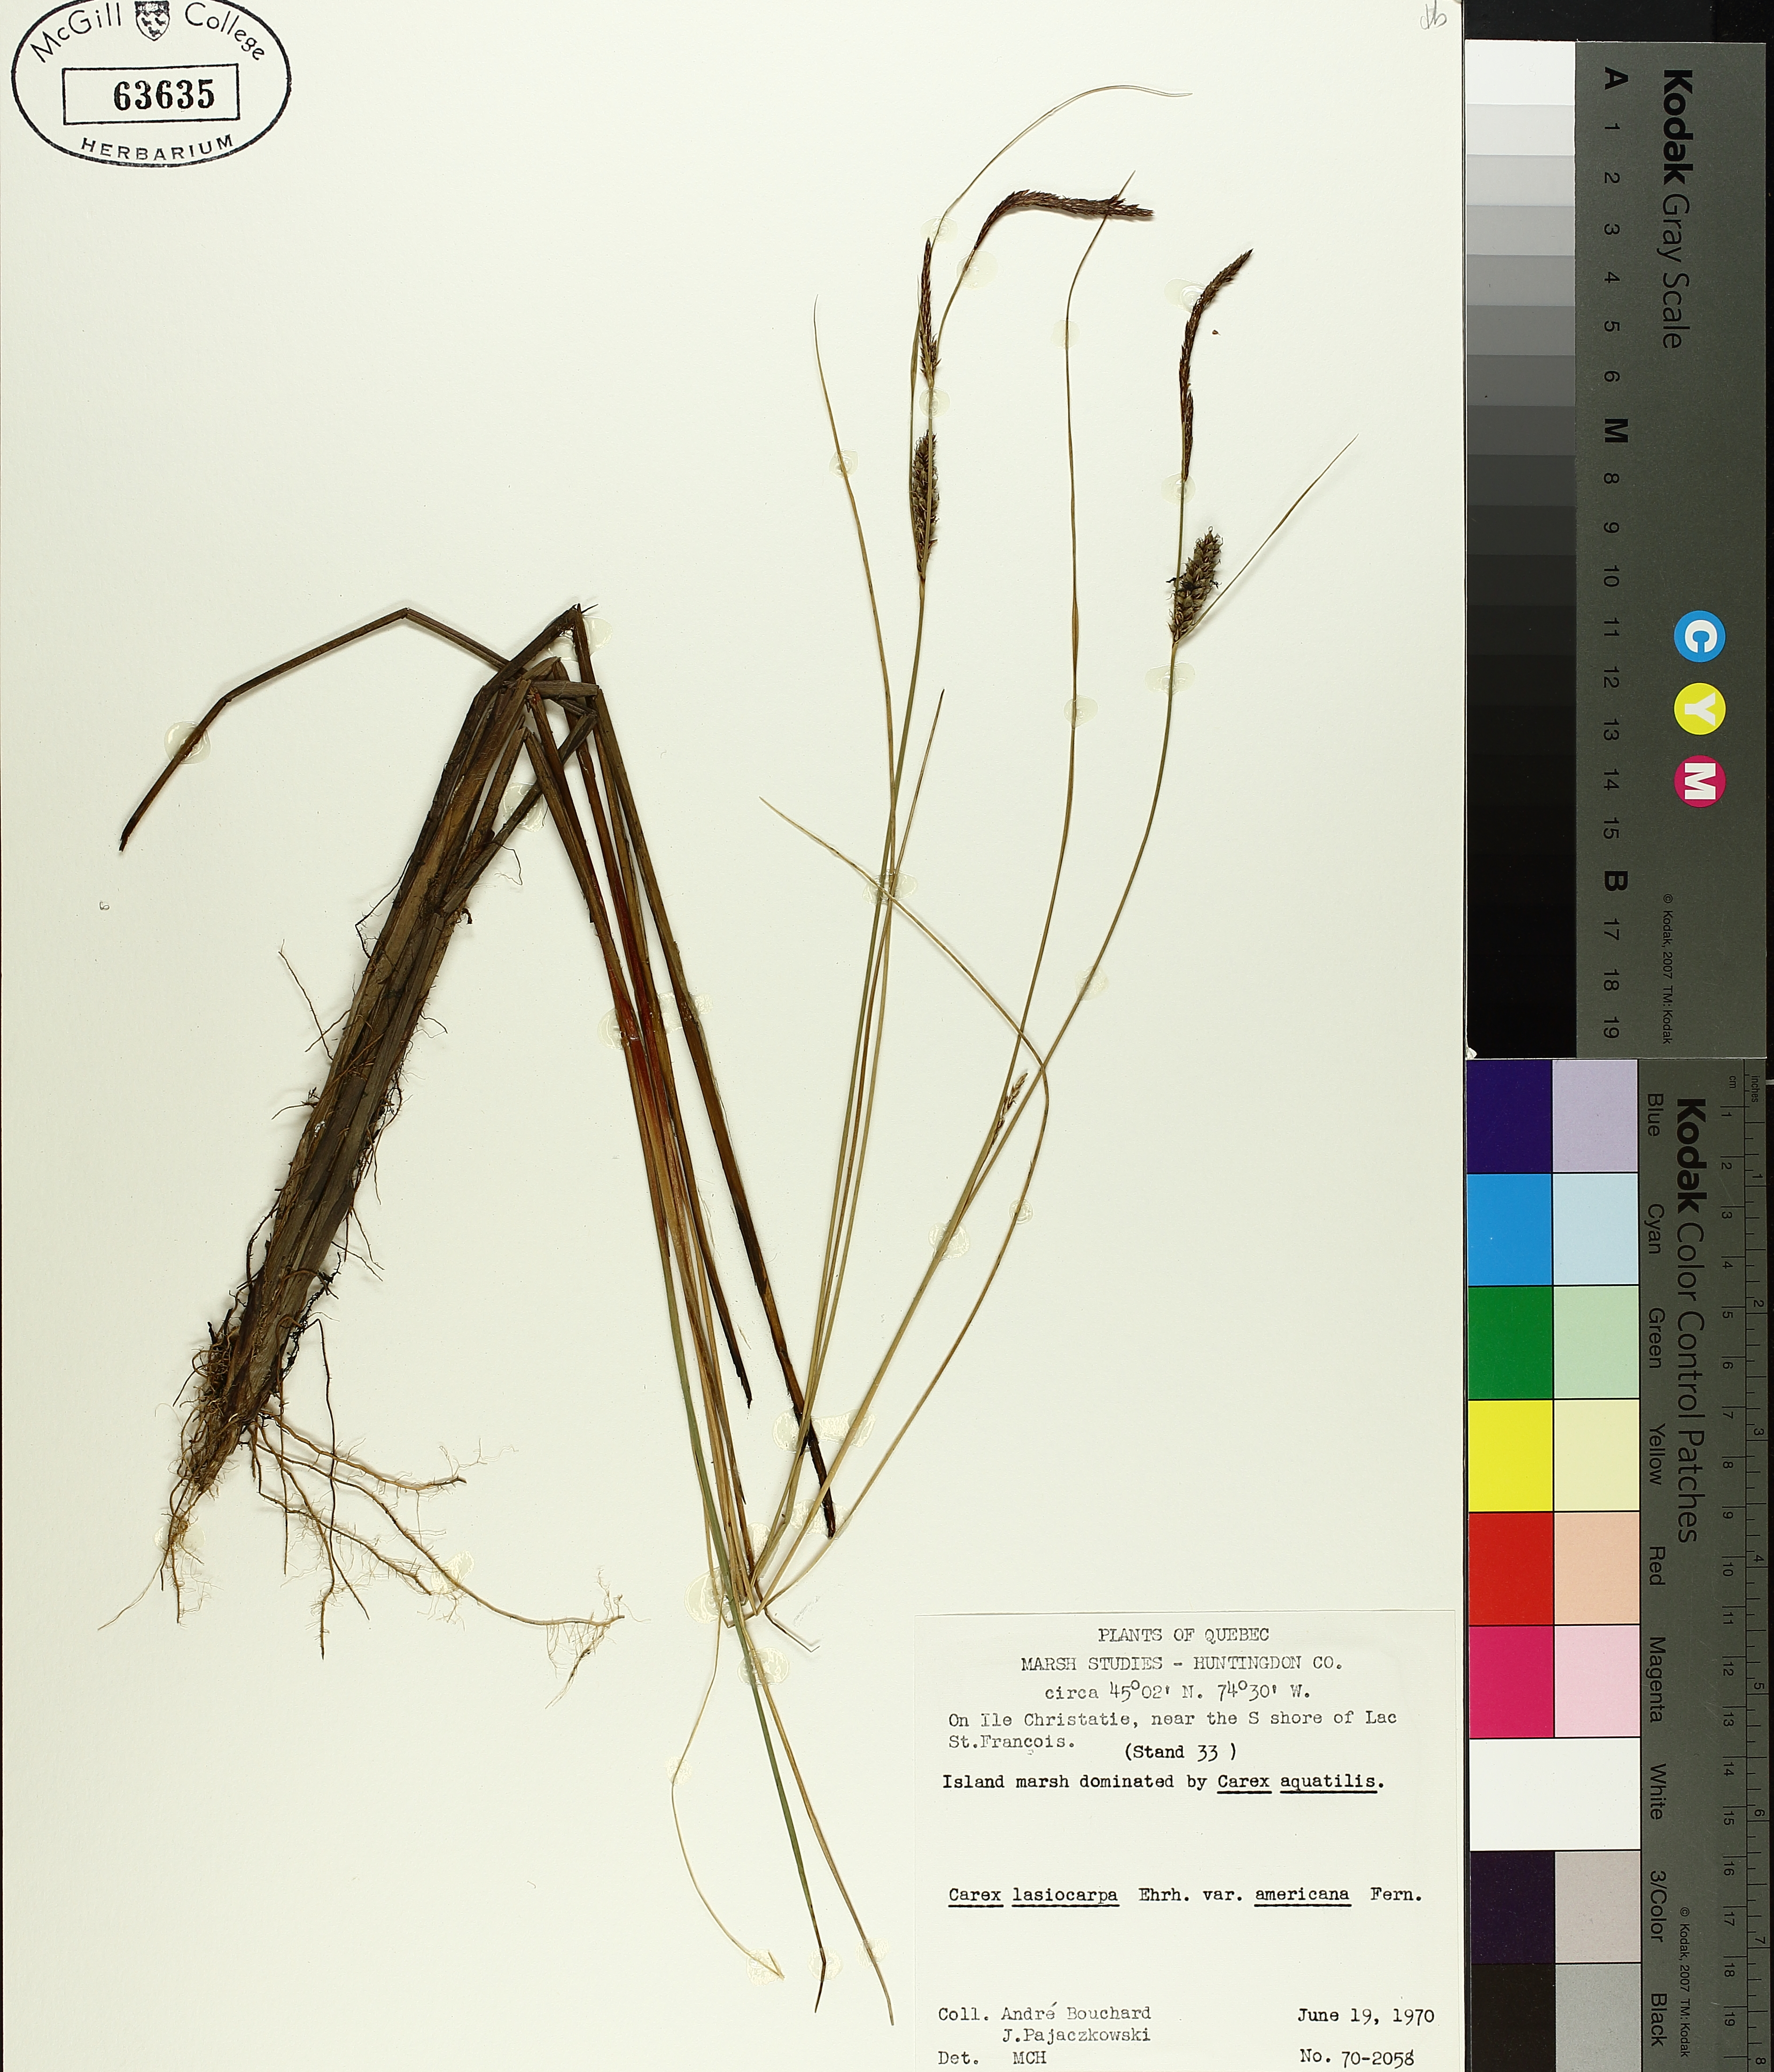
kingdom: Plantae
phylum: Tracheophyta
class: Liliopsida
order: Poales
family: Cyperaceae
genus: Carex
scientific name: Carex lasiocarpa
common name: Slender sedge
